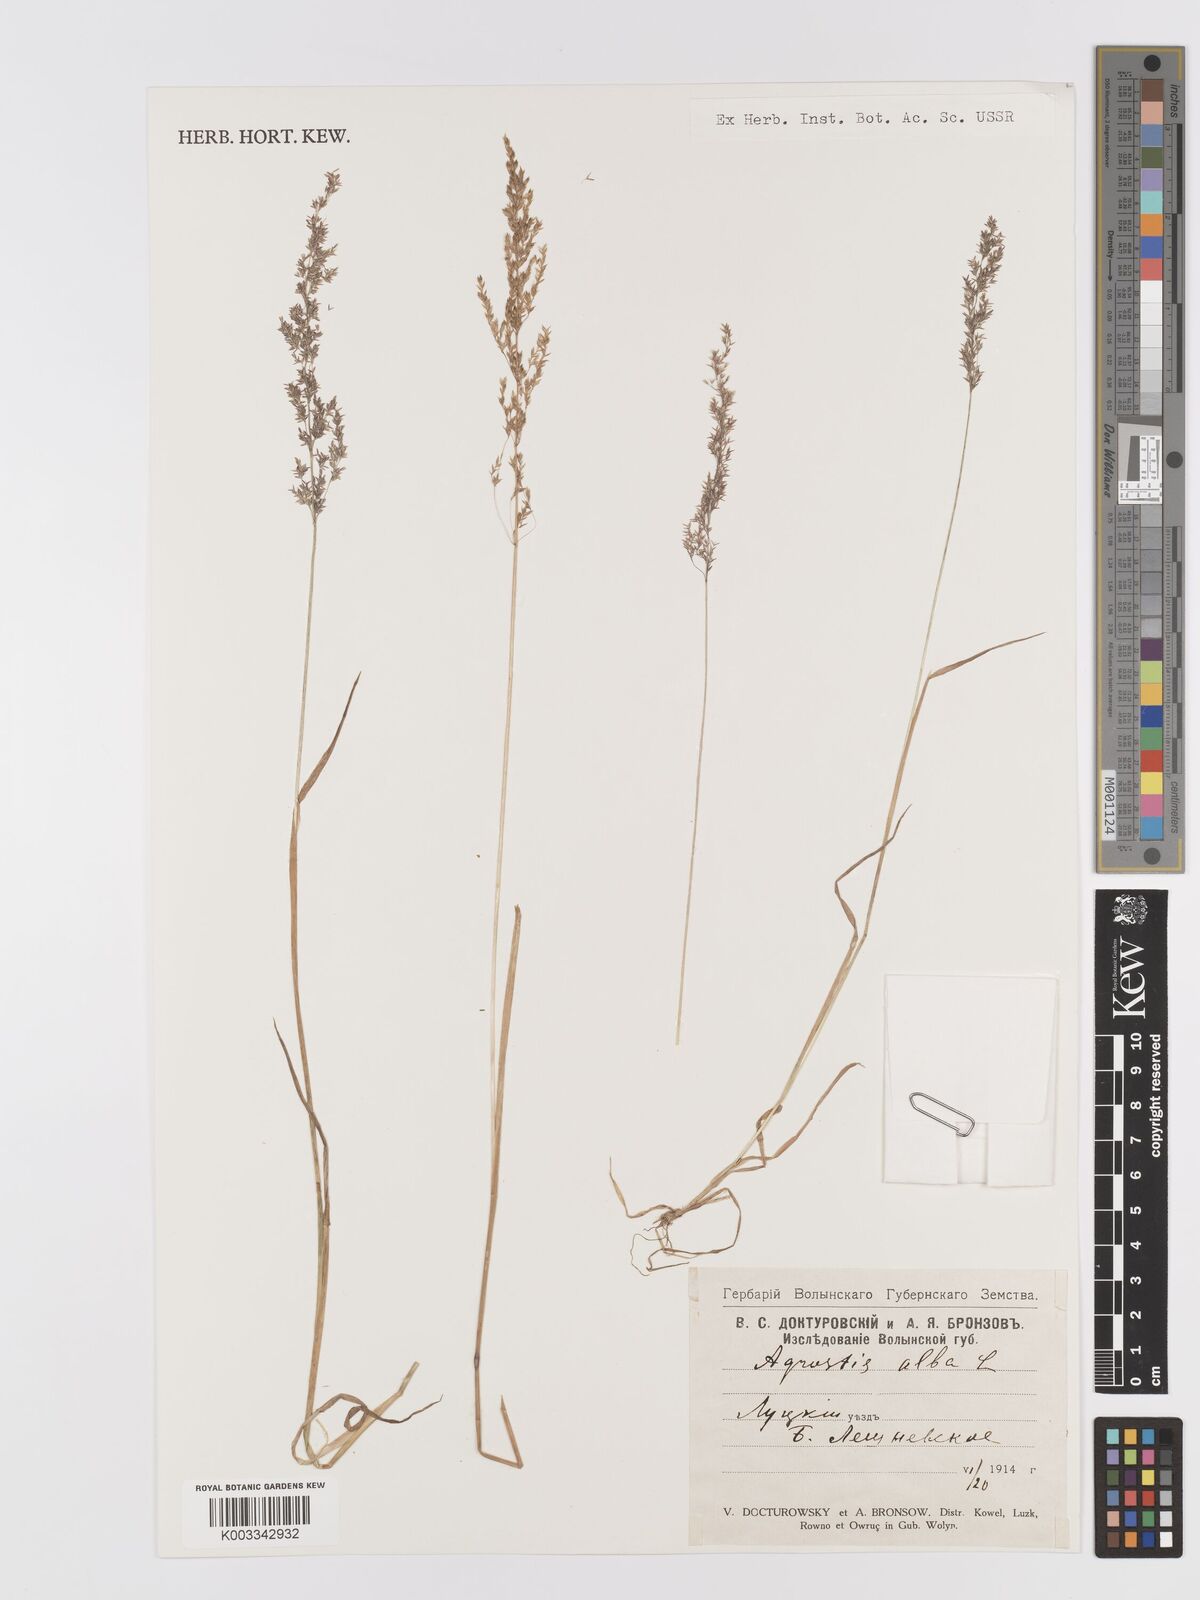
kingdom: Plantae
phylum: Tracheophyta
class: Liliopsida
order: Poales
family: Poaceae
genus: Agrostis
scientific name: Agrostis gigantea
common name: Black bent
